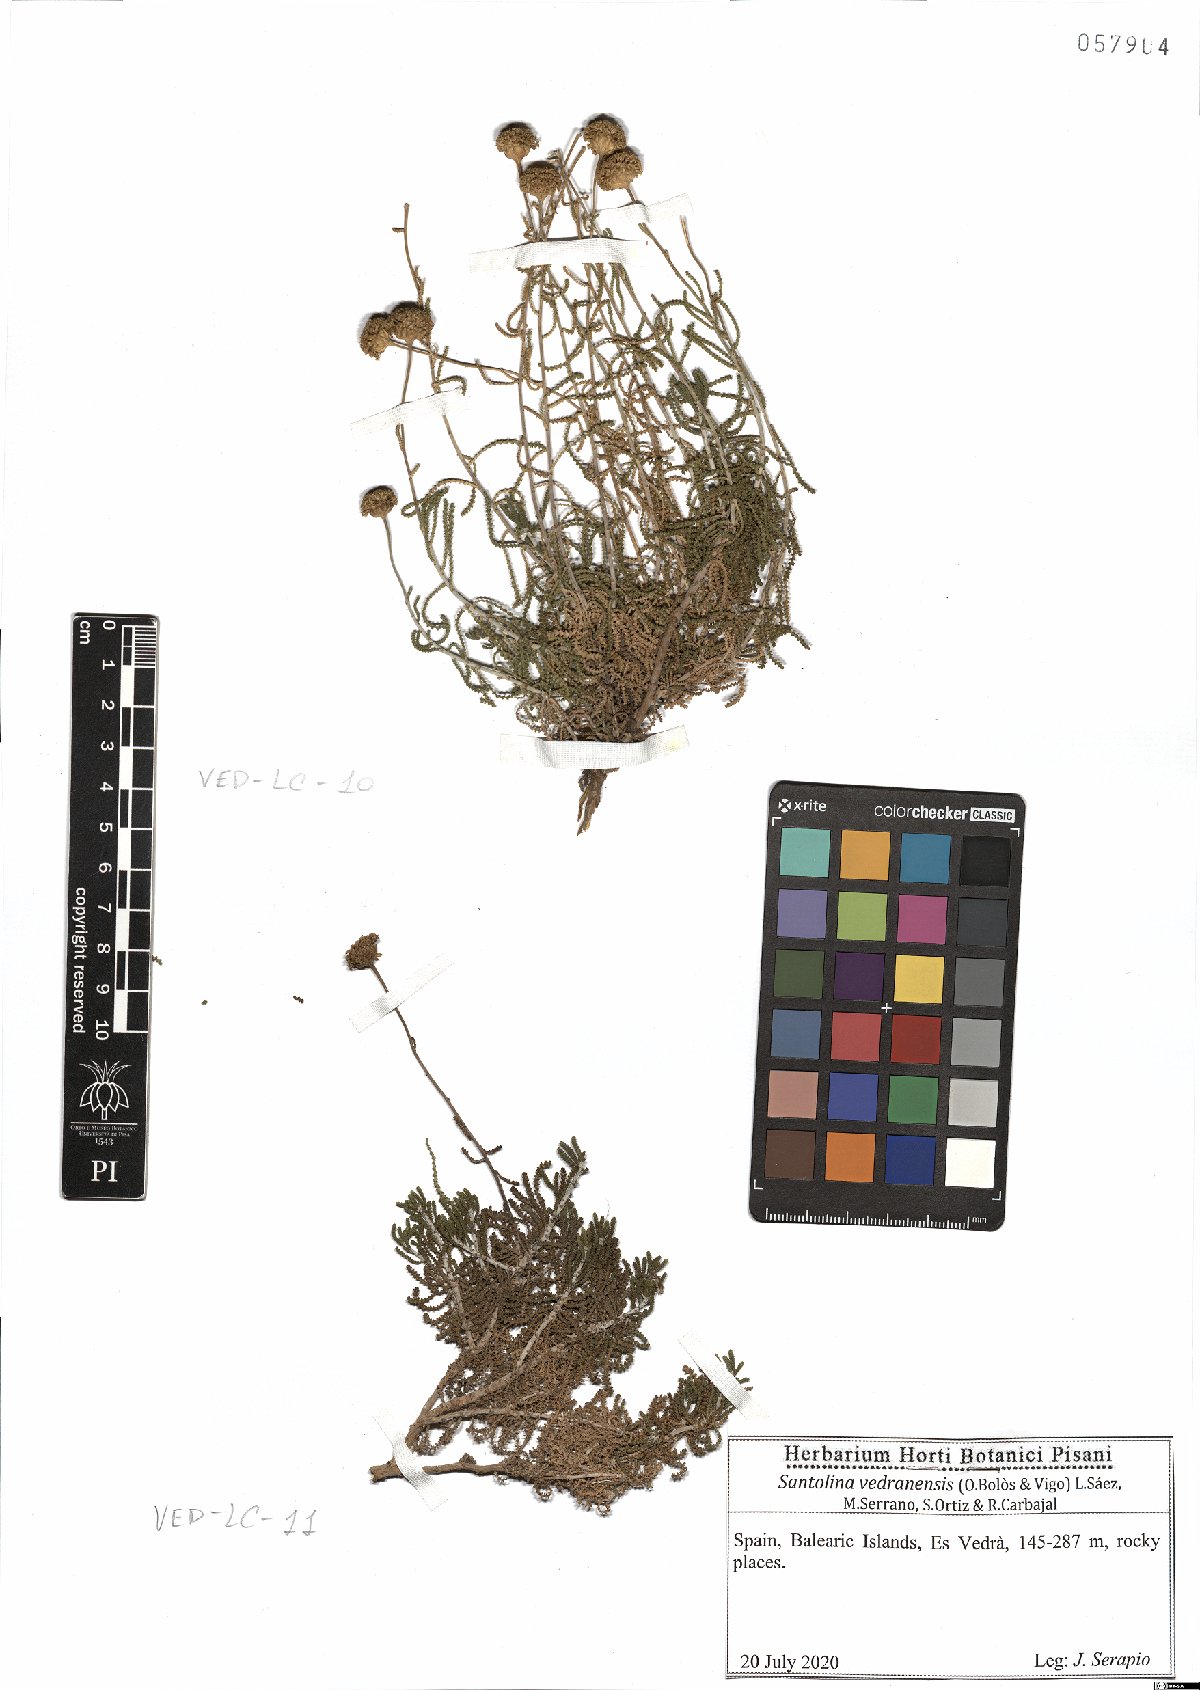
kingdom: Plantae
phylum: Tracheophyta
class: Magnoliopsida
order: Asterales
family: Asteraceae
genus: Santolina
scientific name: Santolina vedranensis
